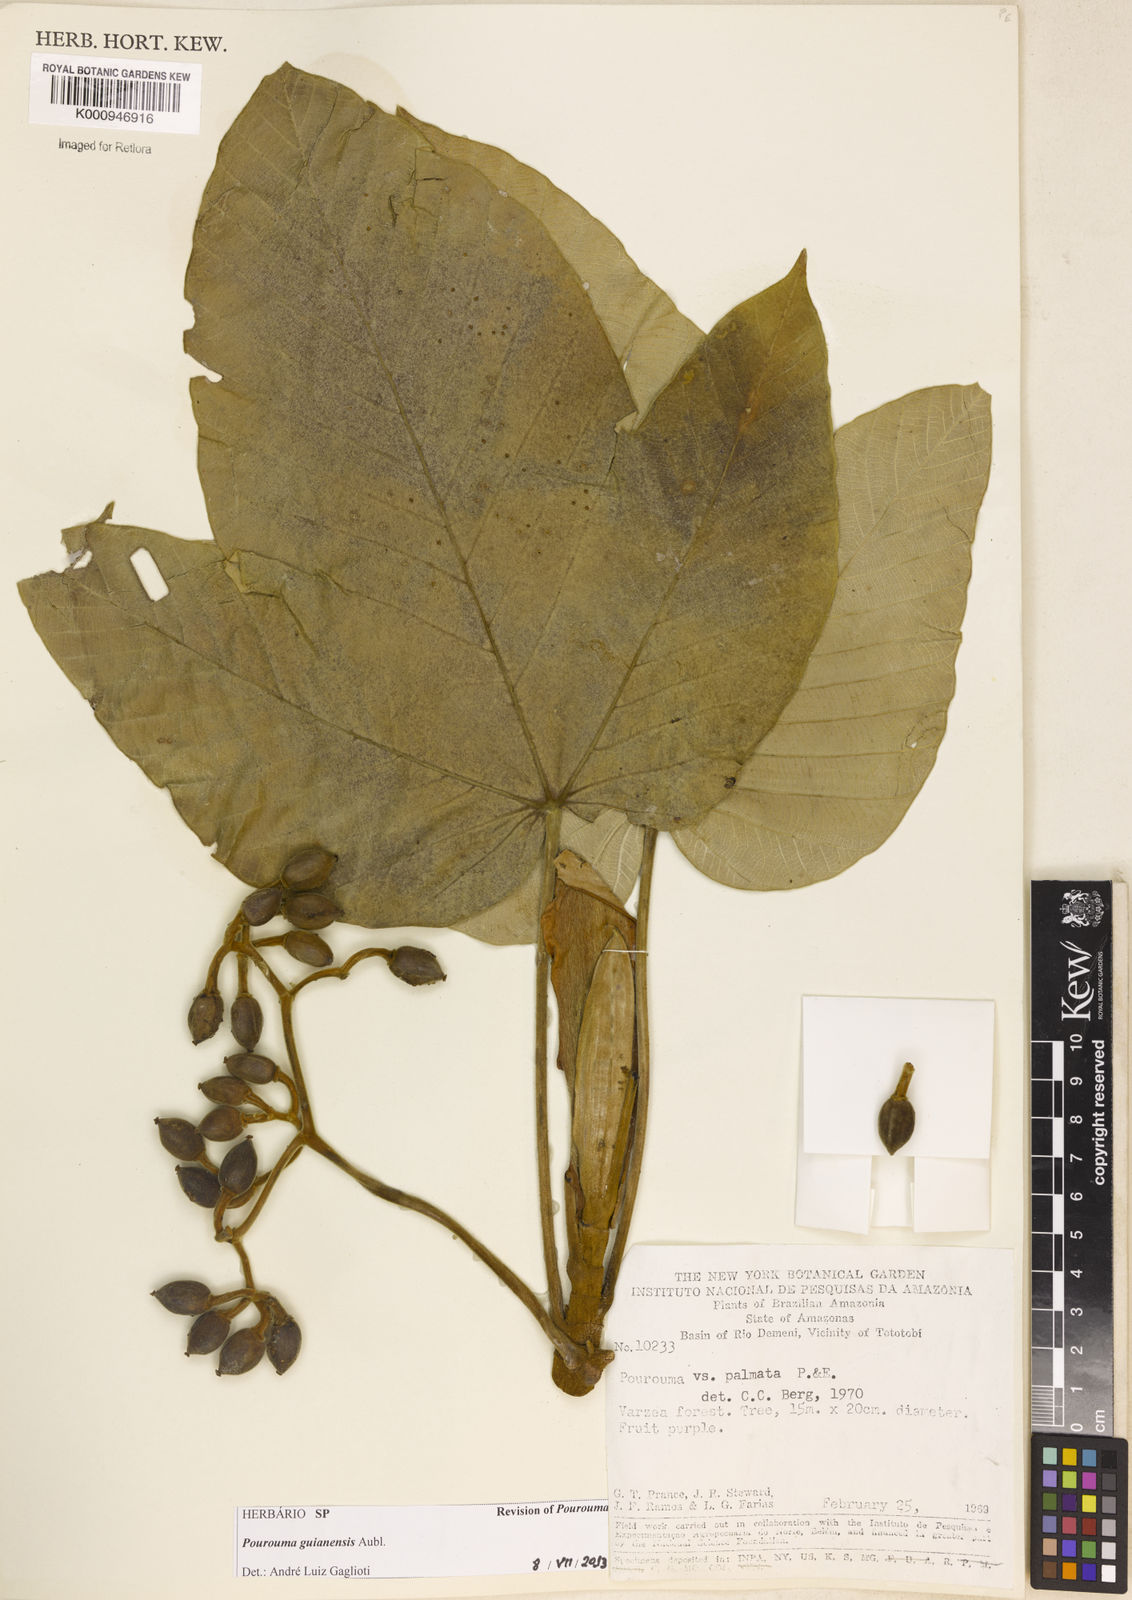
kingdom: Plantae
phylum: Tracheophyta
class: Magnoliopsida
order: Rosales
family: Urticaceae
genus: Pourouma
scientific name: Pourouma guianensis
